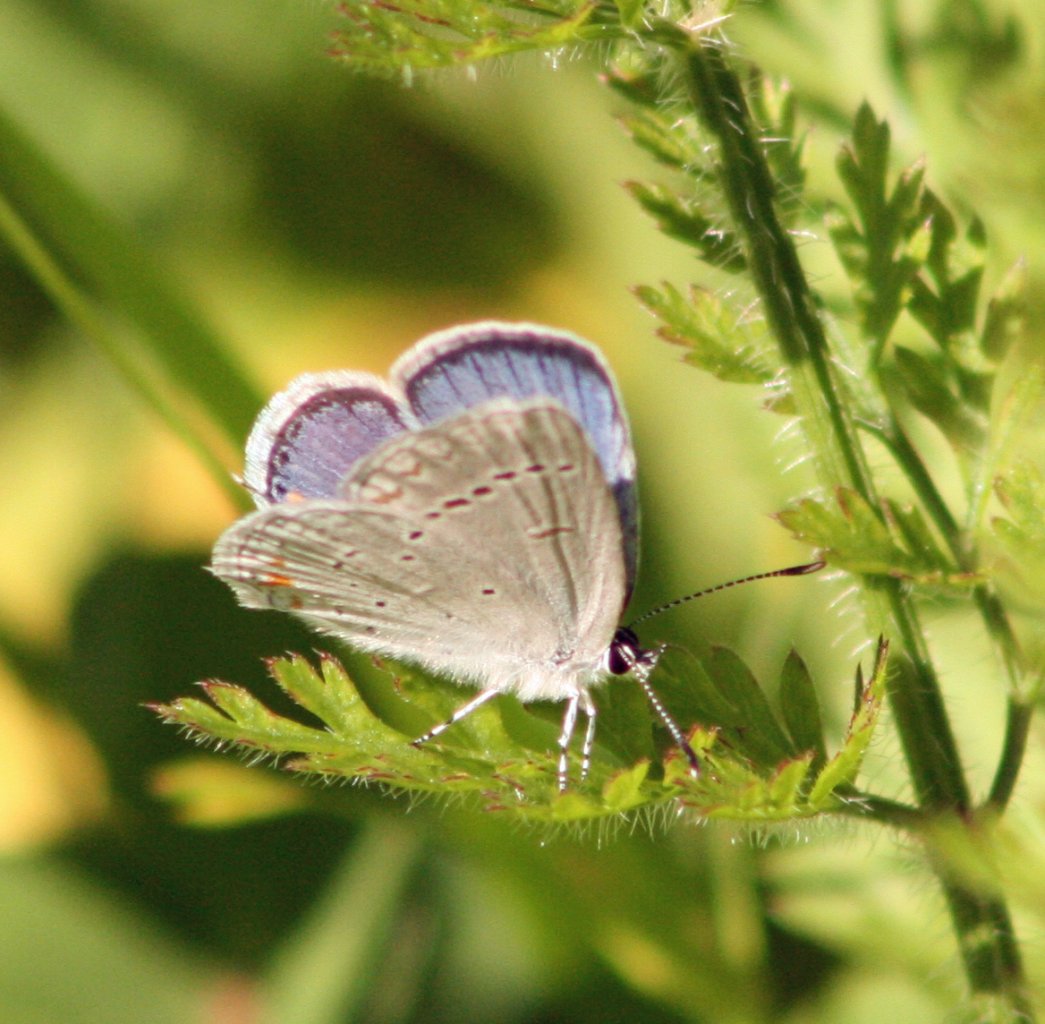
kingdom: Animalia
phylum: Arthropoda
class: Insecta
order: Lepidoptera
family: Lycaenidae
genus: Elkalyce
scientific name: Elkalyce comyntas
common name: Eastern Tailed-Blue
